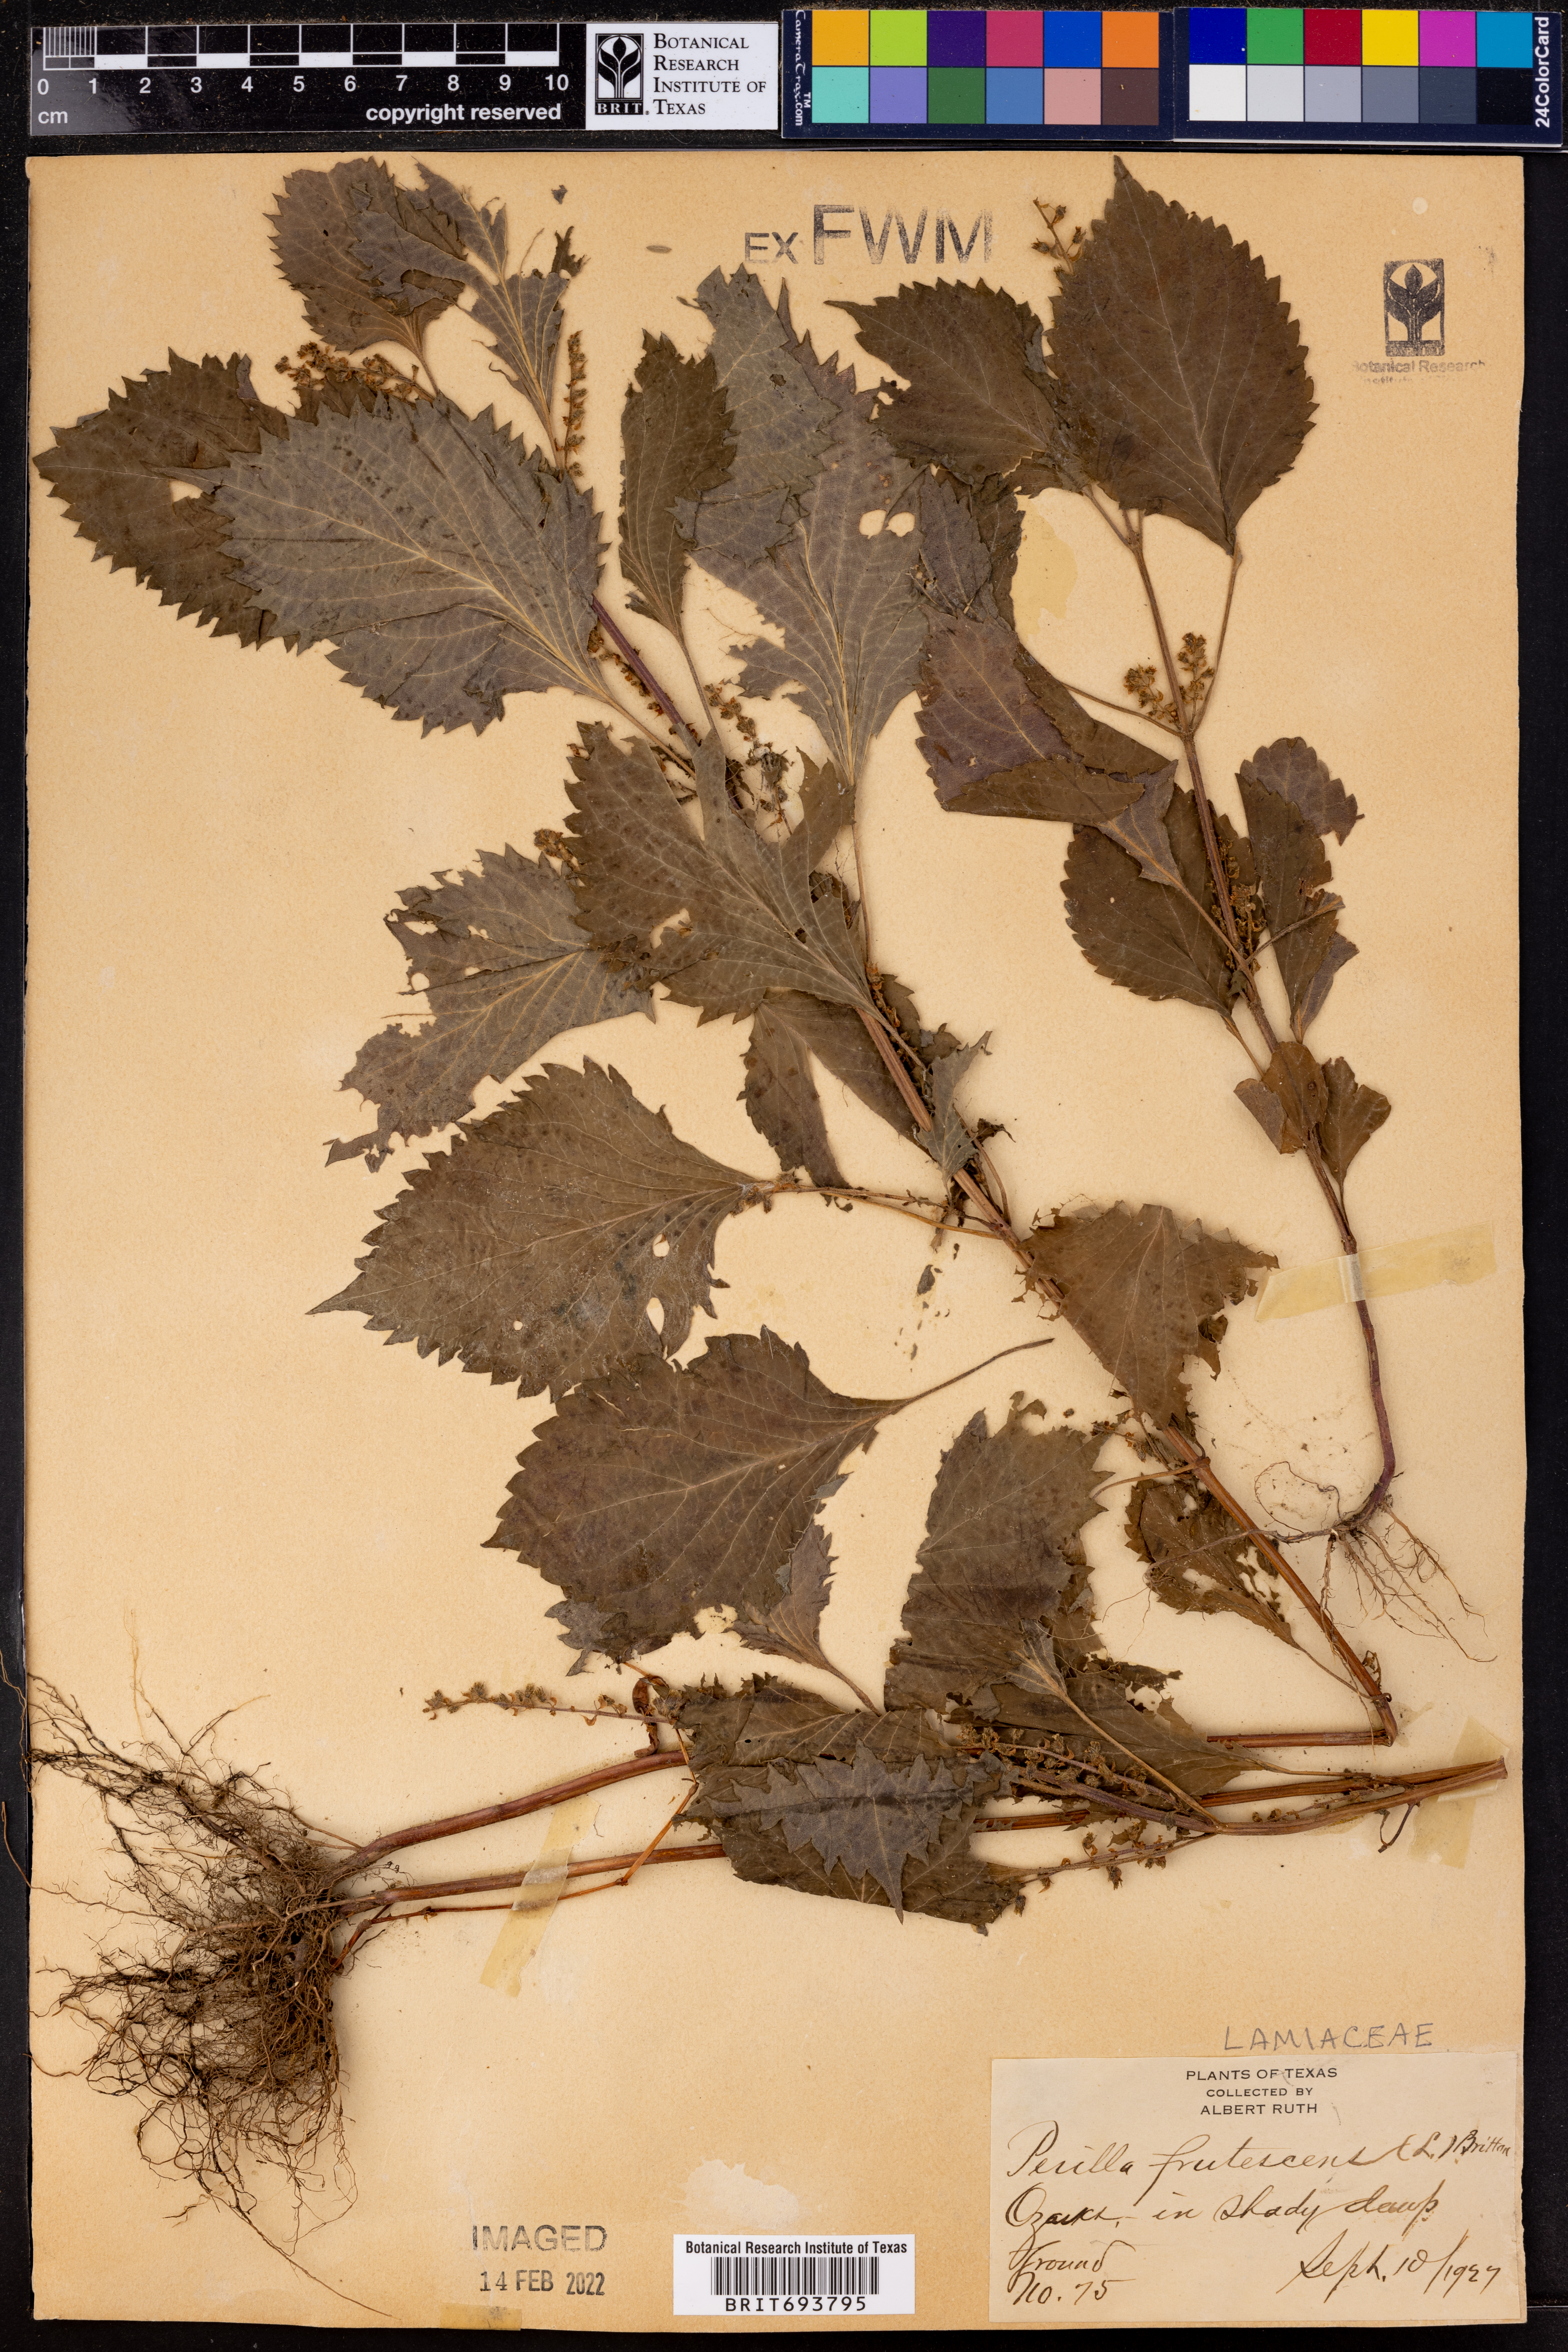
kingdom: Plantae
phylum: Tracheophyta
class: Magnoliopsida
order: Lamiales
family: Lamiaceae
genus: Perilla
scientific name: Perilla frutescens
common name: Perilla
